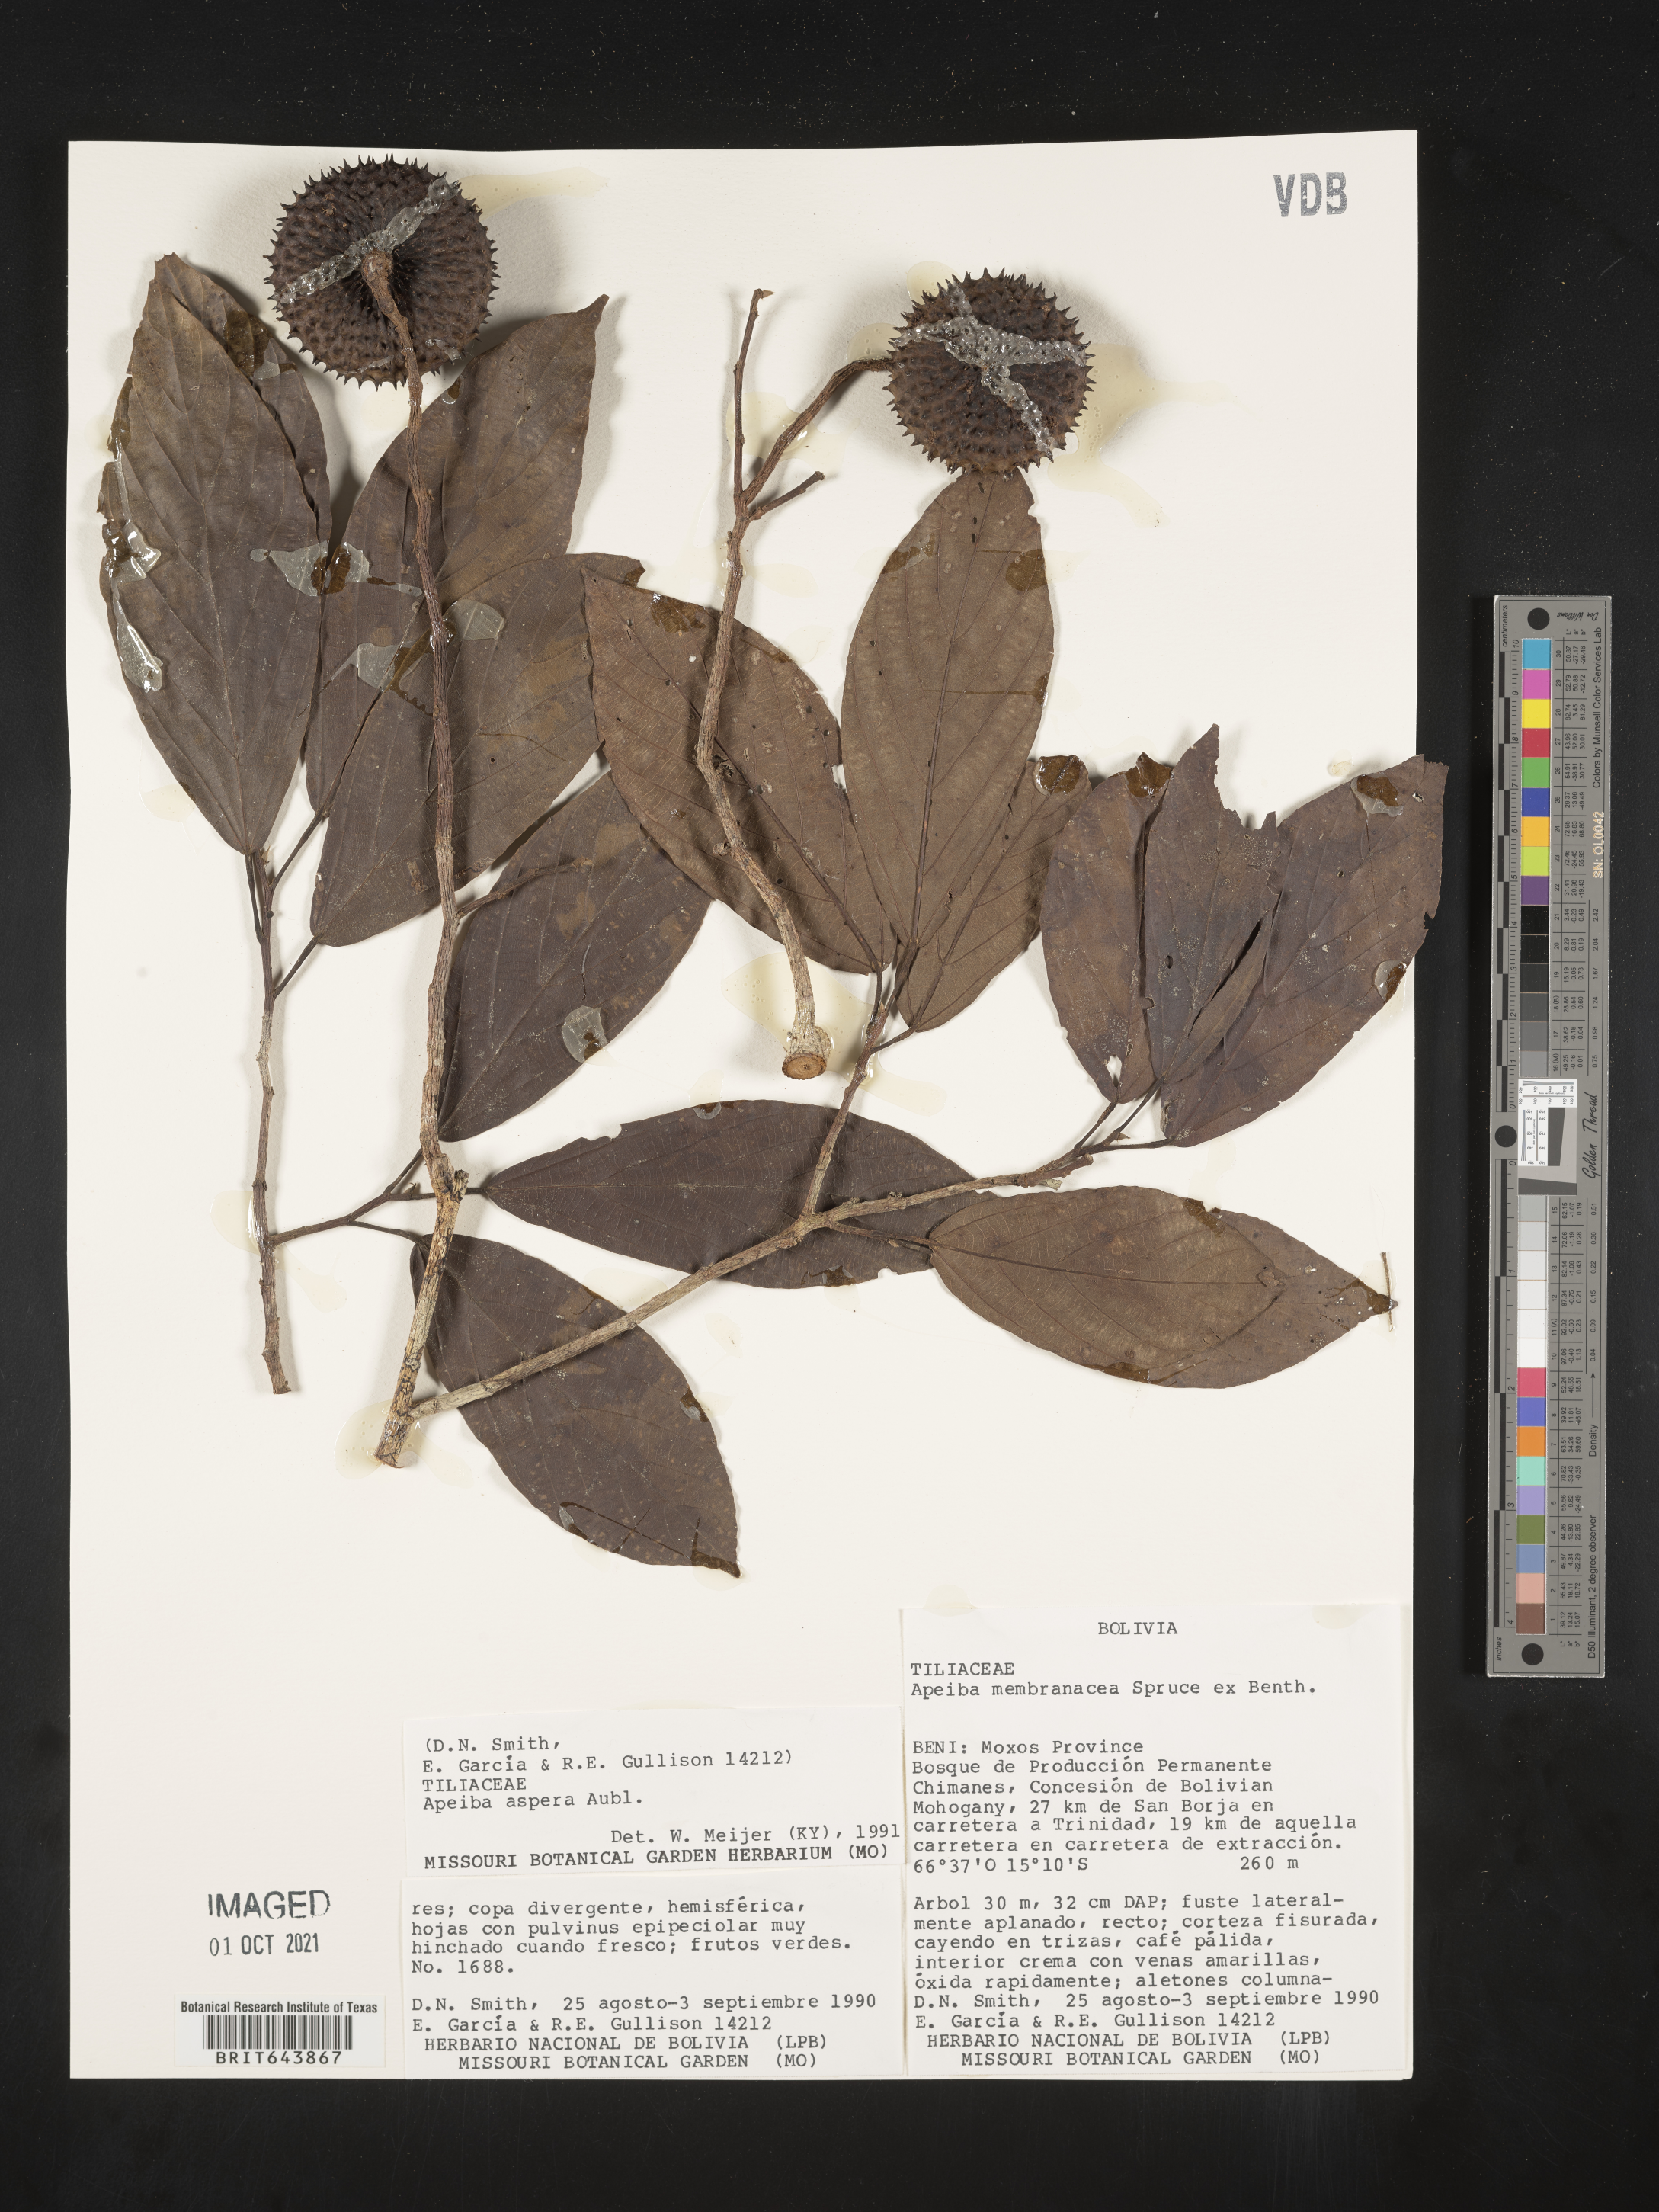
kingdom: Plantae
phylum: Tracheophyta
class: Magnoliopsida
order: Malvales
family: Malvaceae
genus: Apeiba
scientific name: Apeiba
